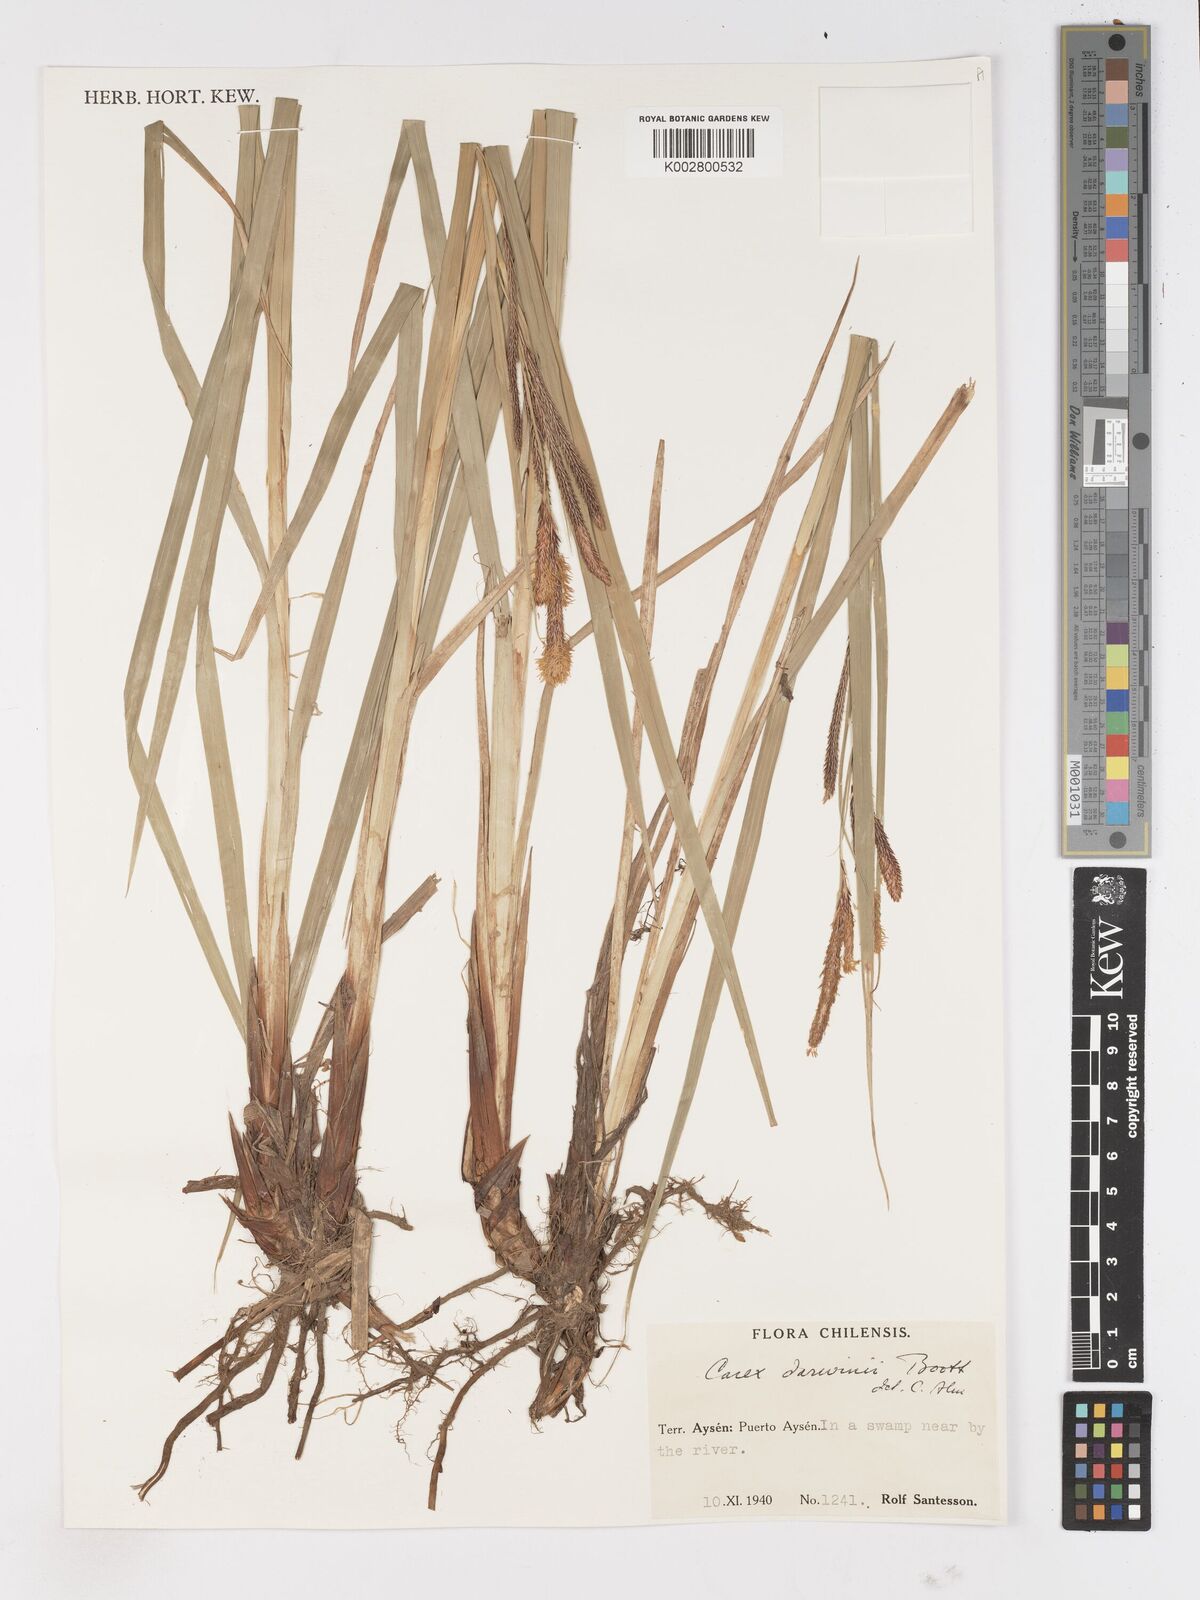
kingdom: Plantae
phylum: Tracheophyta
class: Liliopsida
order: Poales
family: Cyperaceae
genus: Carex
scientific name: Carex darwinii
